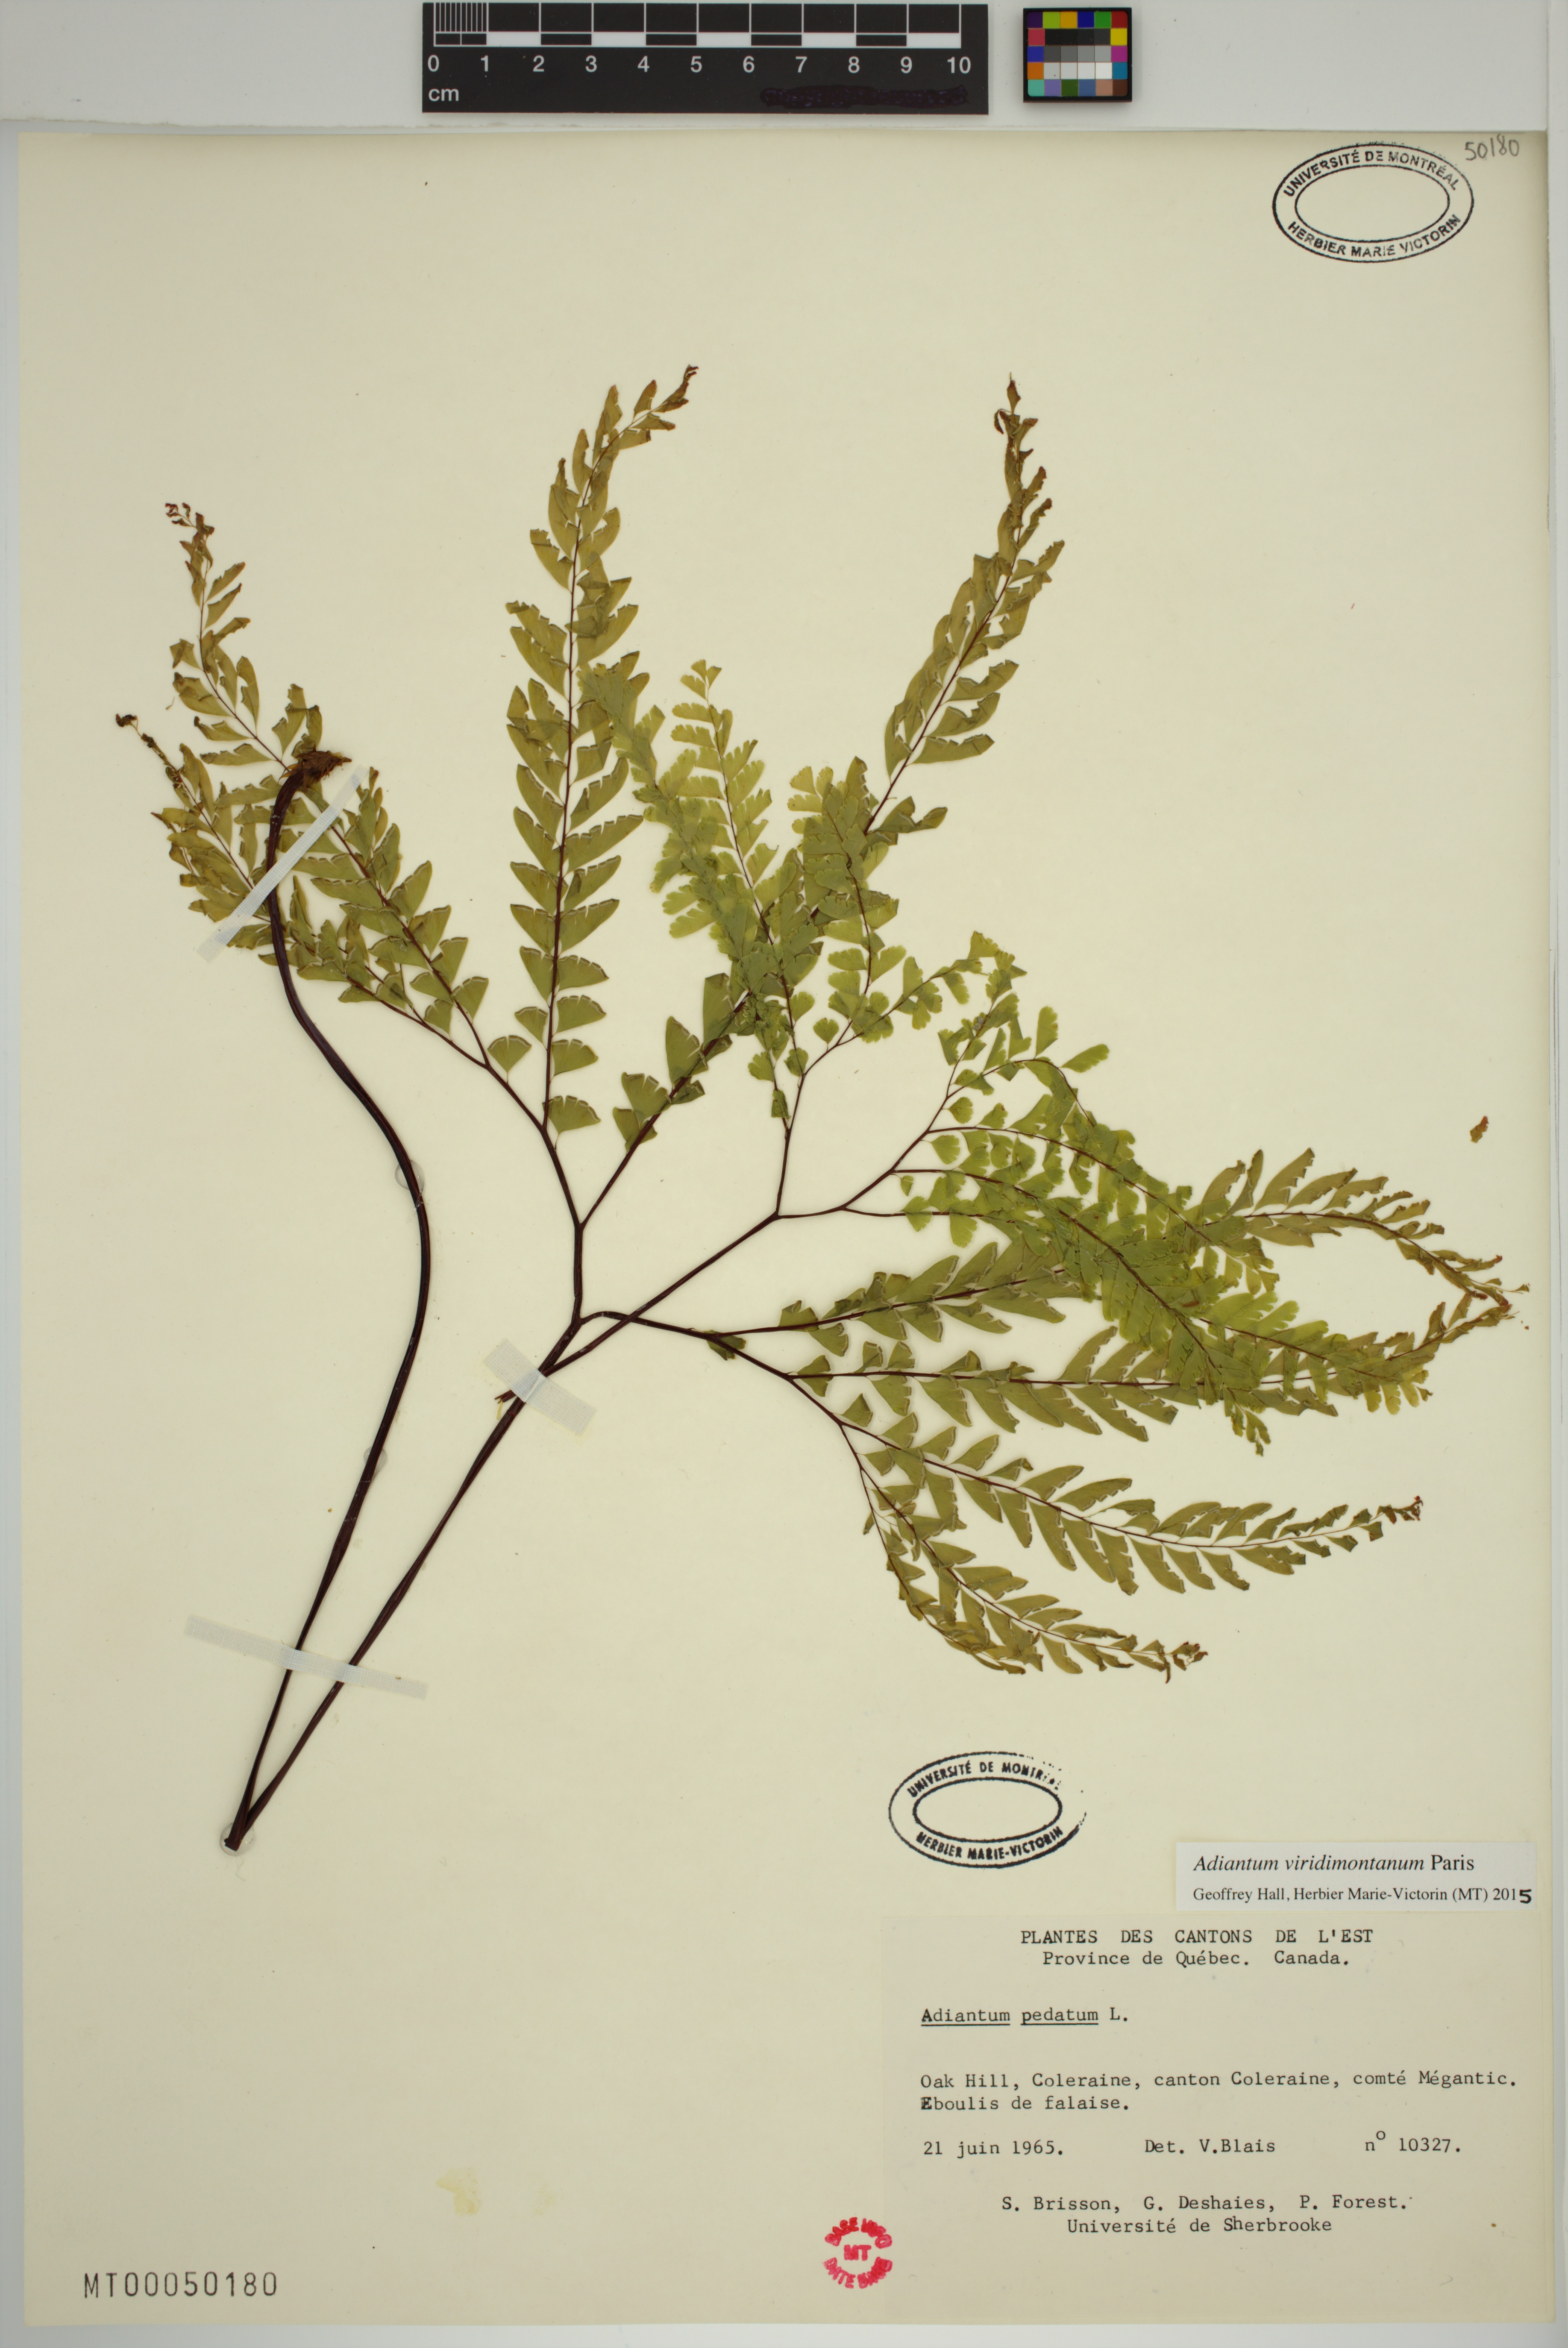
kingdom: Plantae
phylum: Tracheophyta
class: Polypodiopsida
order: Polypodiales
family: Pteridaceae
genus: Adiantum
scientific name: Adiantum viridimontanum
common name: Green mountain maidenhair
